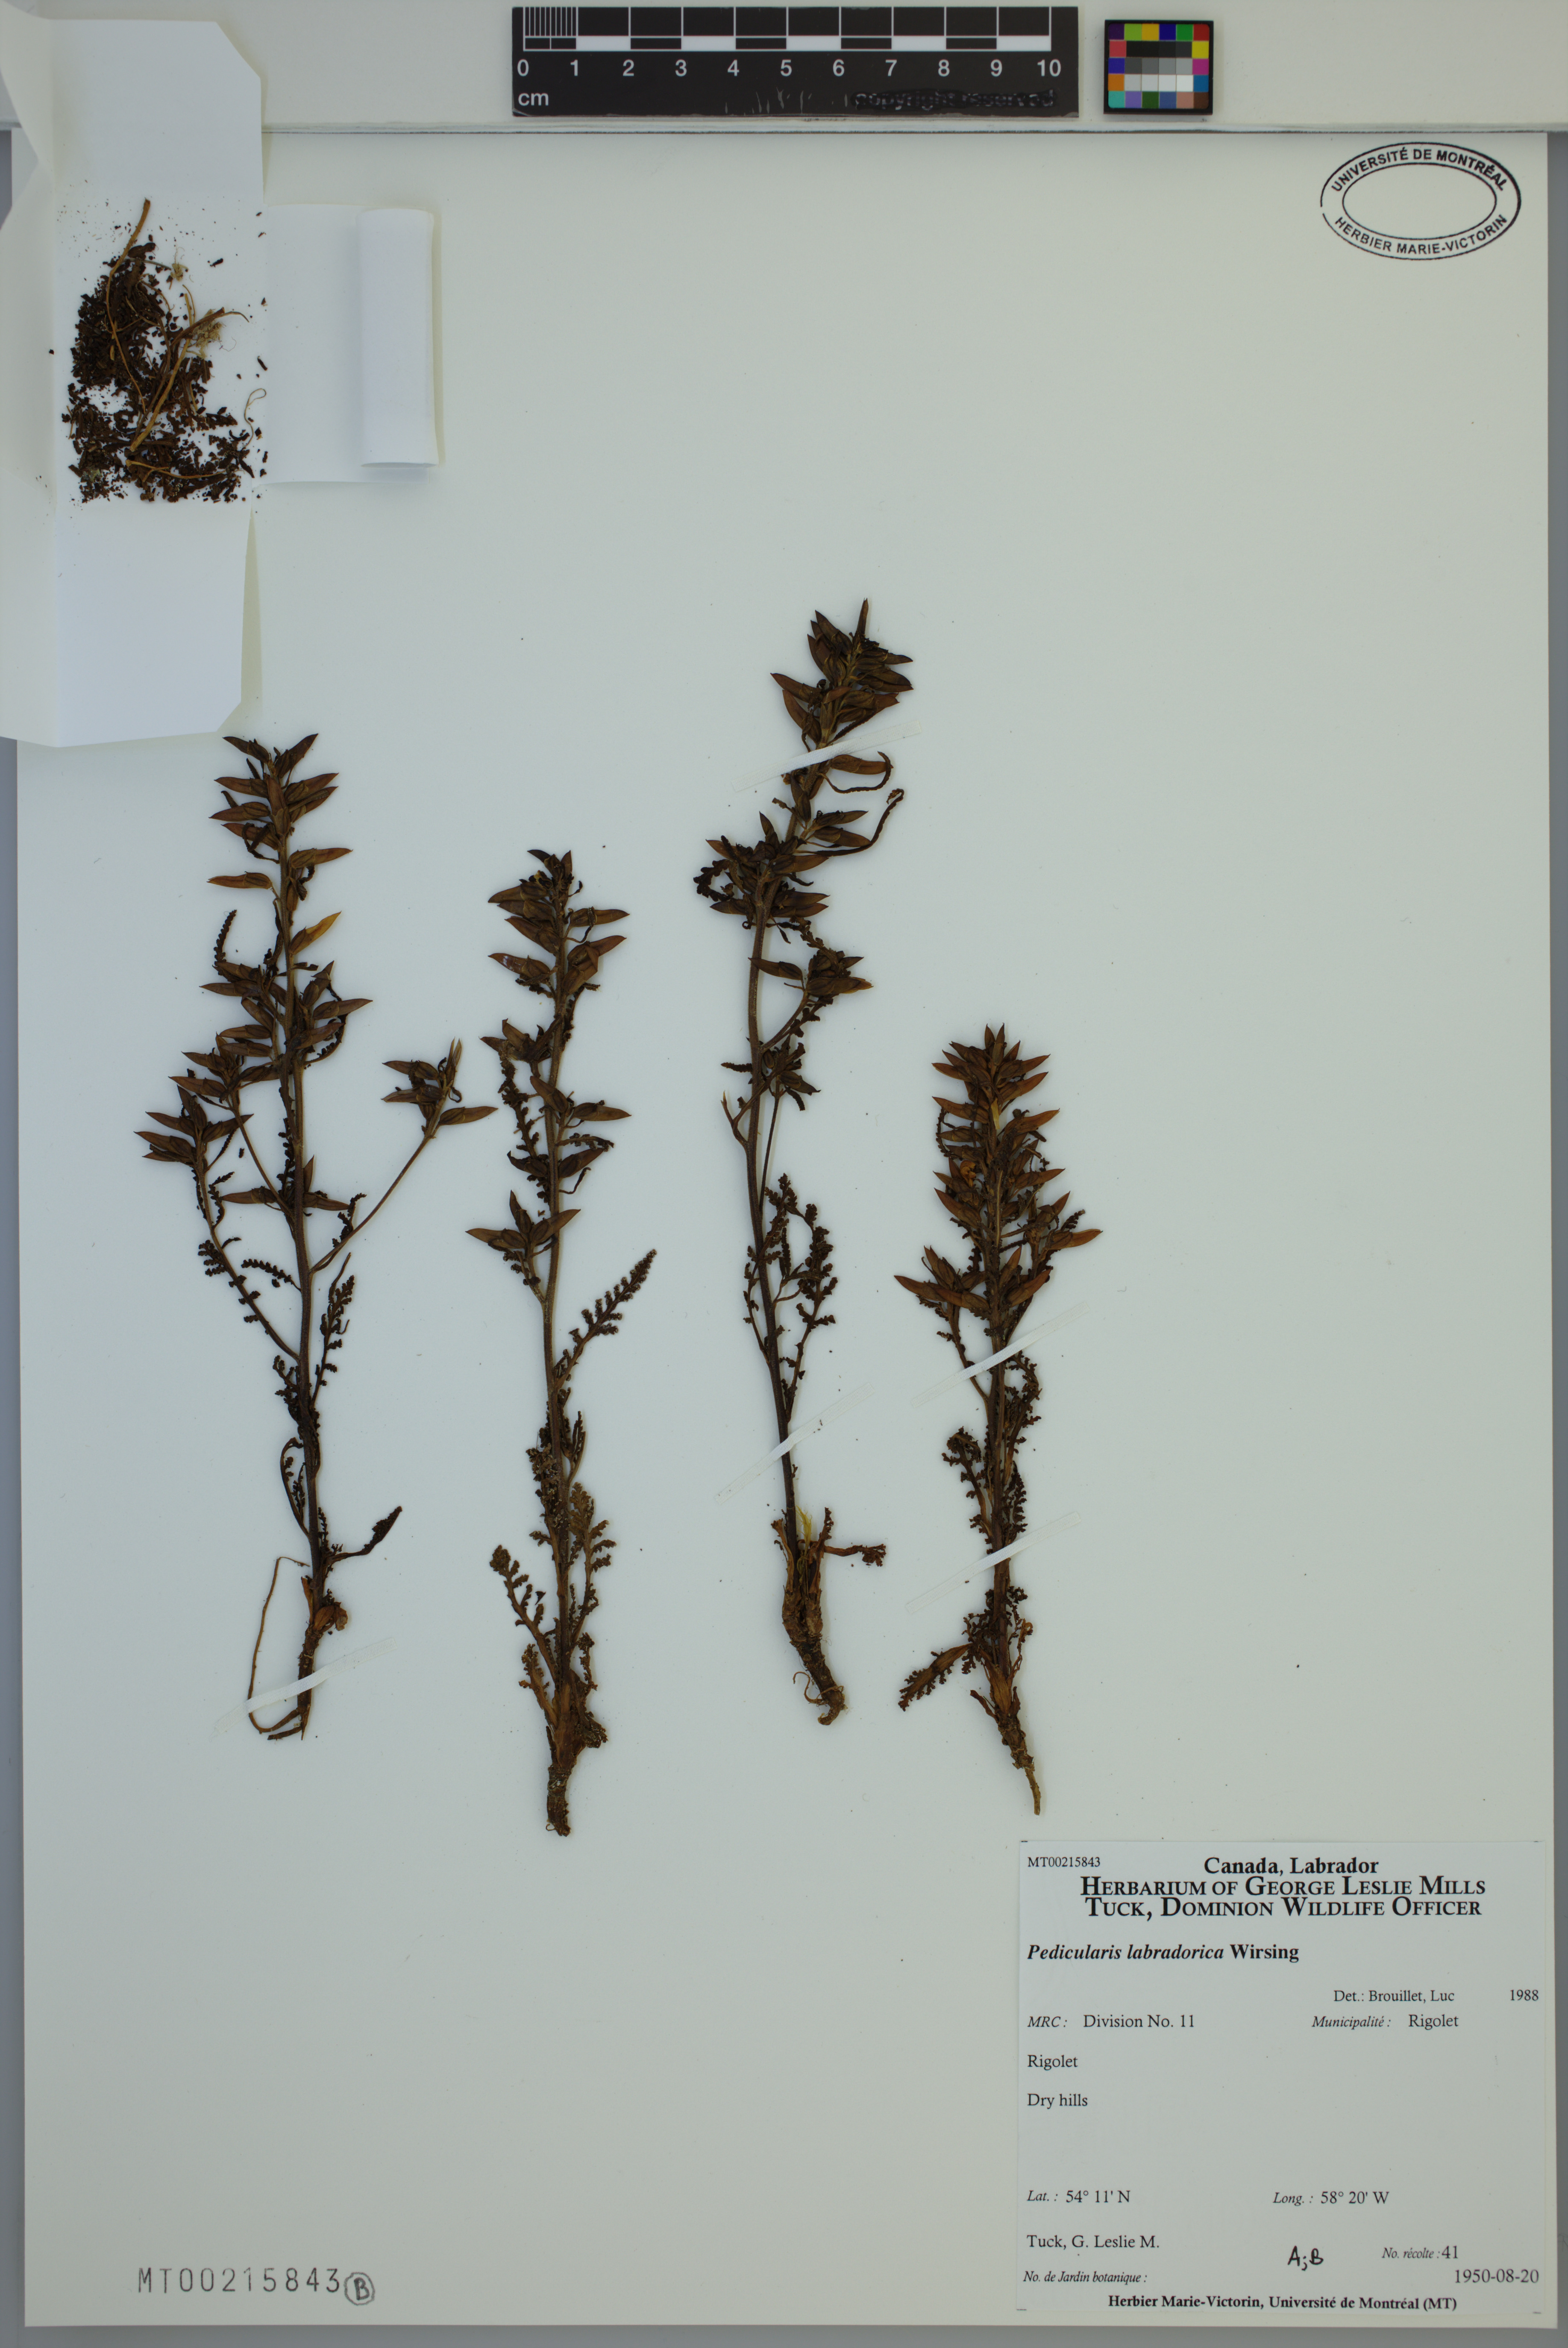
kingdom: Plantae
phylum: Tracheophyta
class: Magnoliopsida
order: Lamiales
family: Orobanchaceae
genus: Pedicularis
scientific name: Pedicularis labradorica
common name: Labrador lousewort
